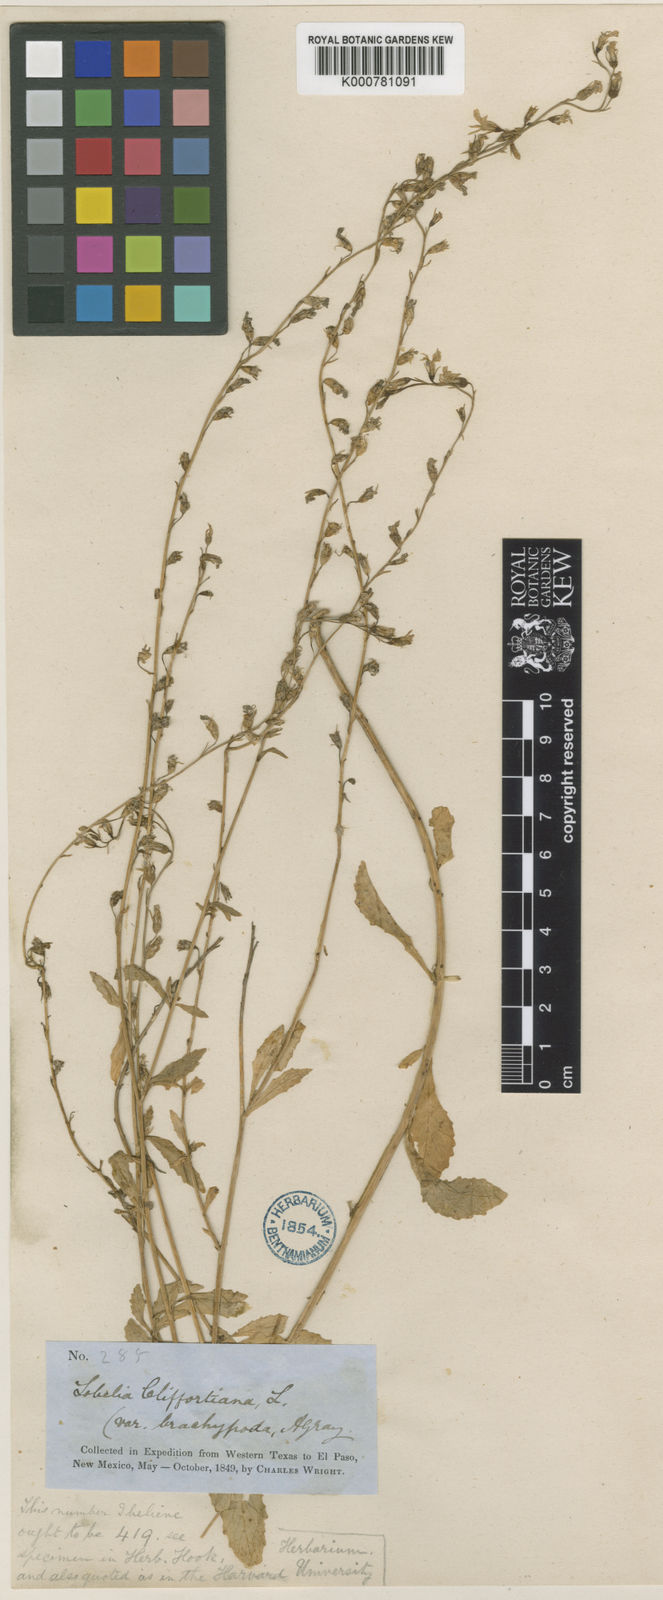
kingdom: Plantae
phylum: Tracheophyta
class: Magnoliopsida
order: Asterales
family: Campanulaceae
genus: Lobelia
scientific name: Lobelia
